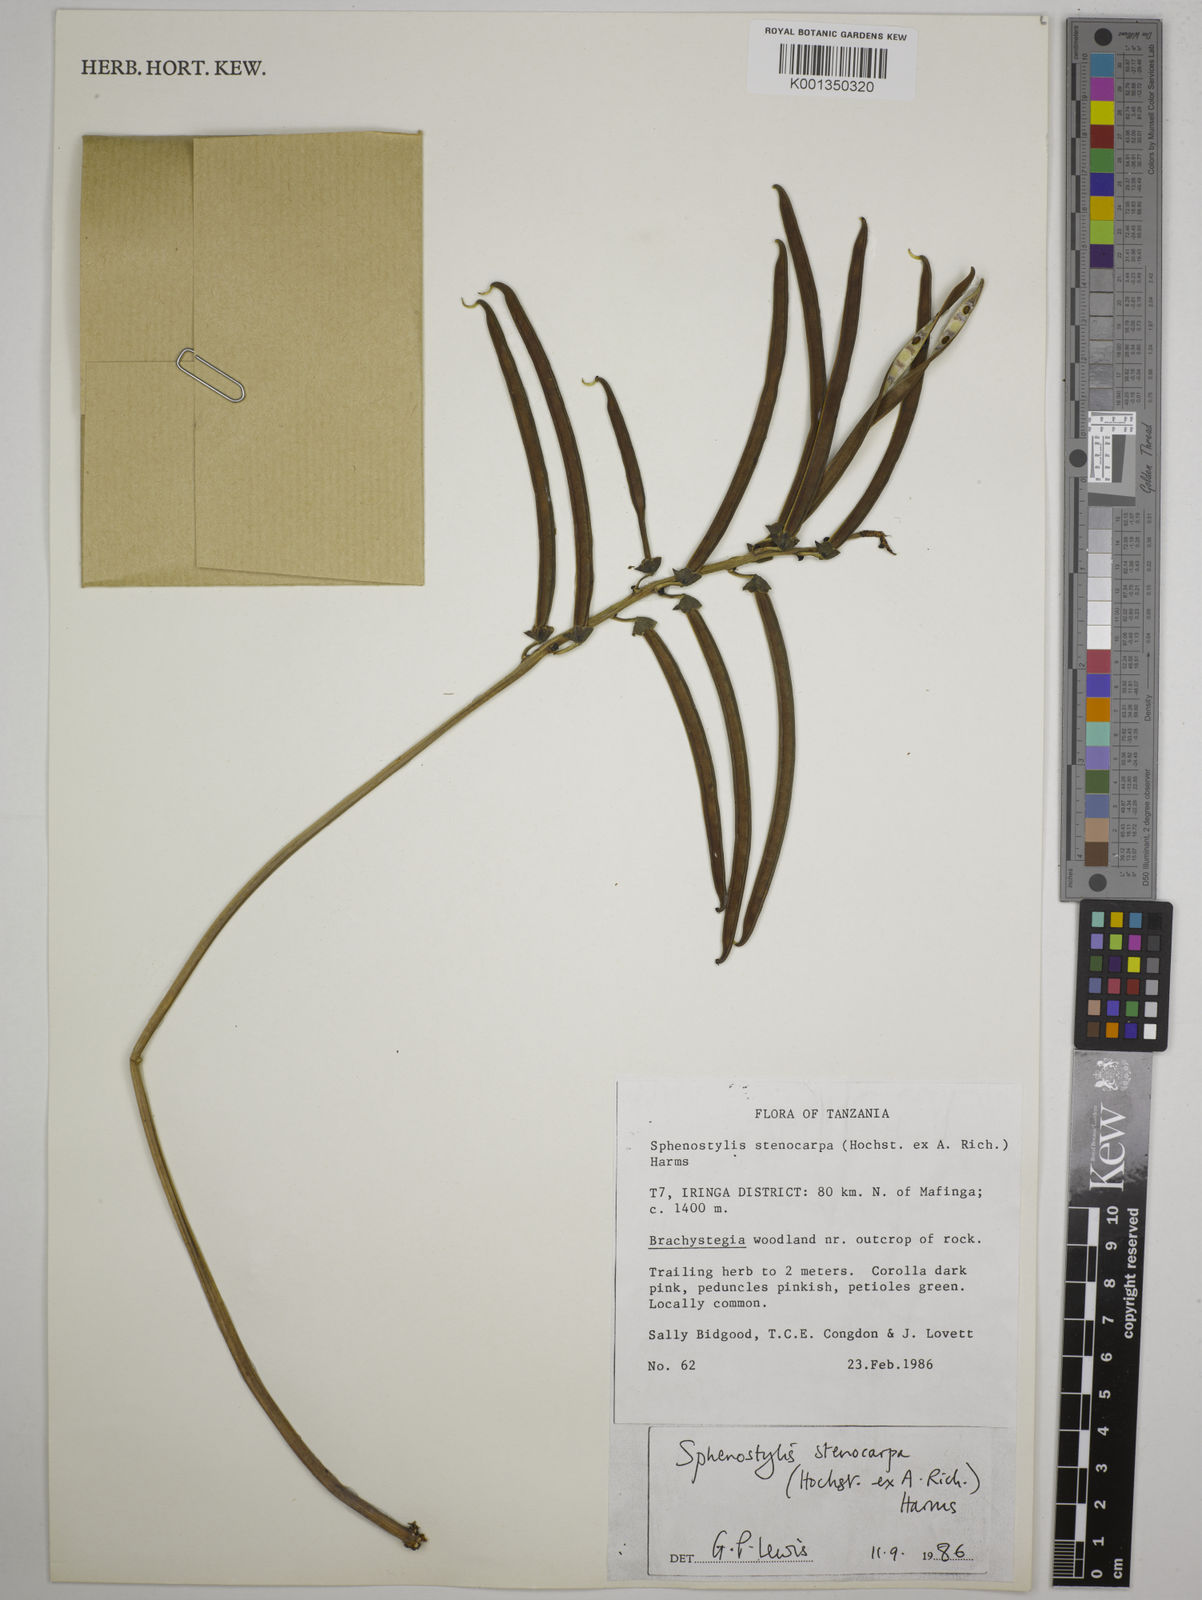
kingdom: Plantae
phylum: Tracheophyta
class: Magnoliopsida
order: Fabales
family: Fabaceae
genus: Sphenostylis
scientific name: Sphenostylis stenocarpa
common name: Yam-pea
